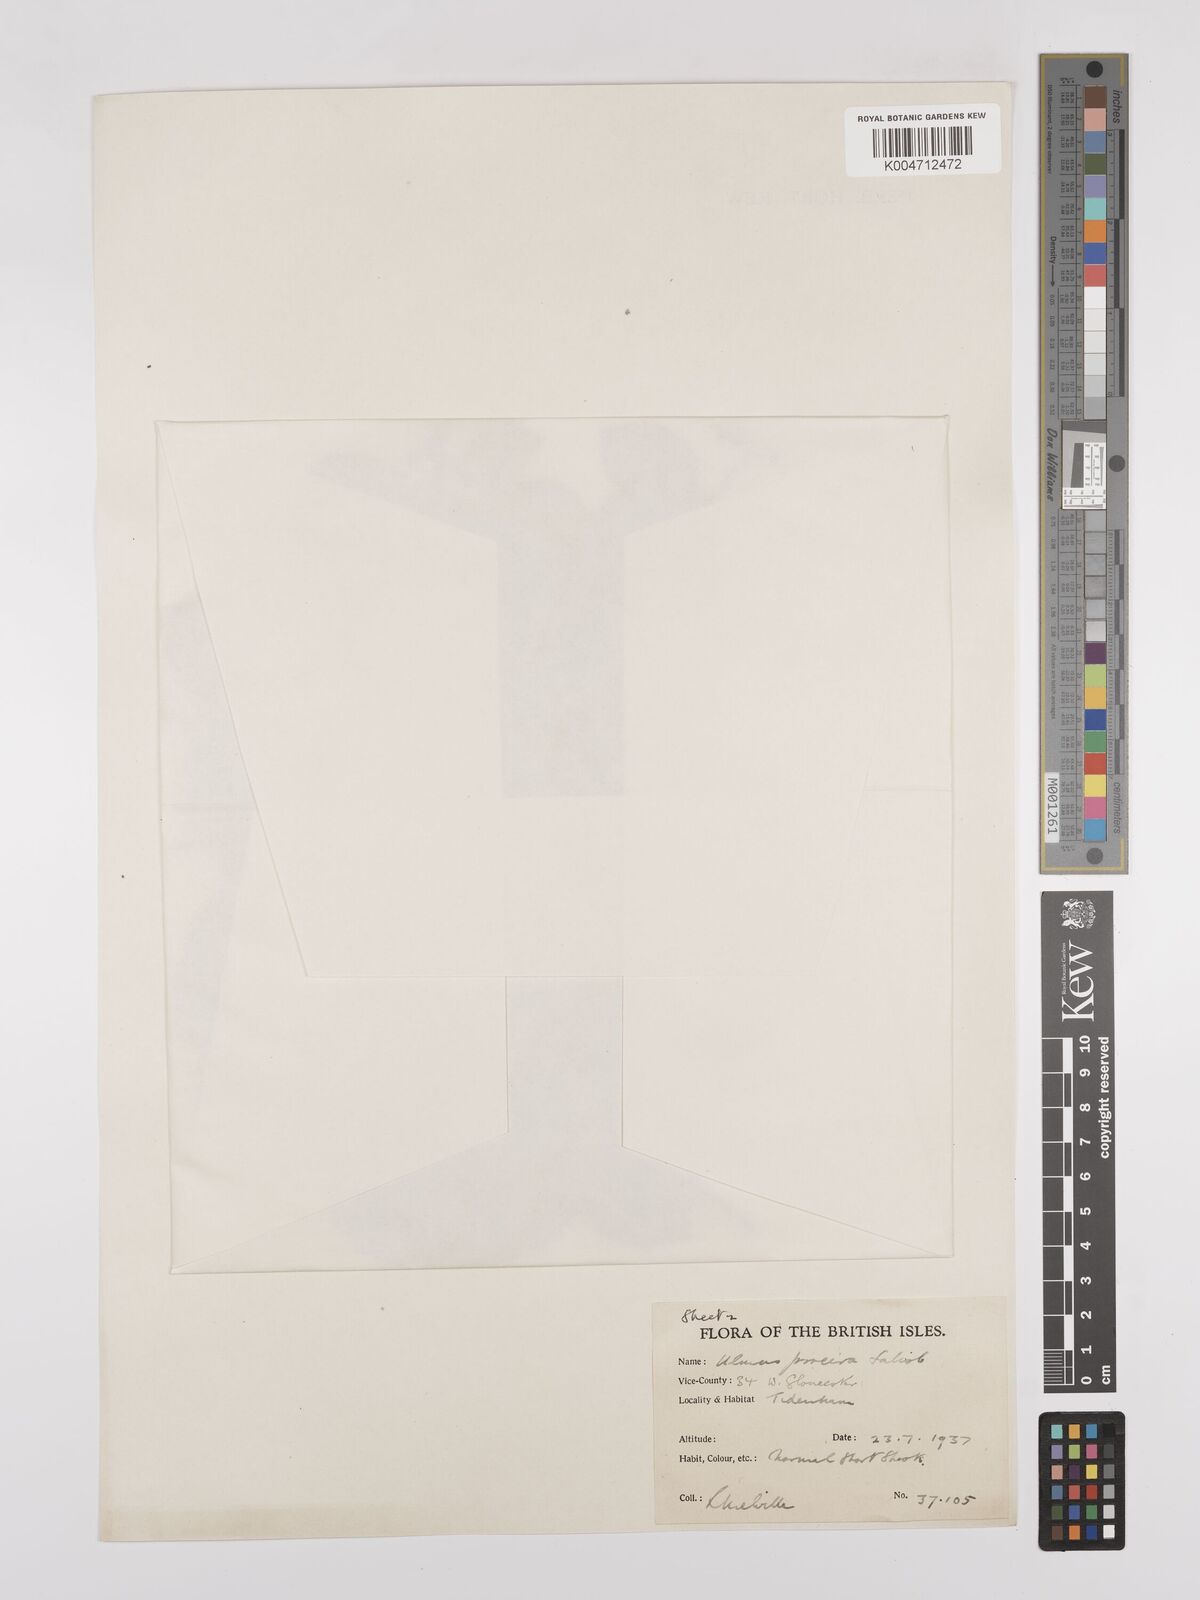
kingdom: Plantae
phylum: Tracheophyta
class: Magnoliopsida
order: Rosales
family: Ulmaceae
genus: Ulmus
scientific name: Ulmus minor
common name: Small-leaved elm
